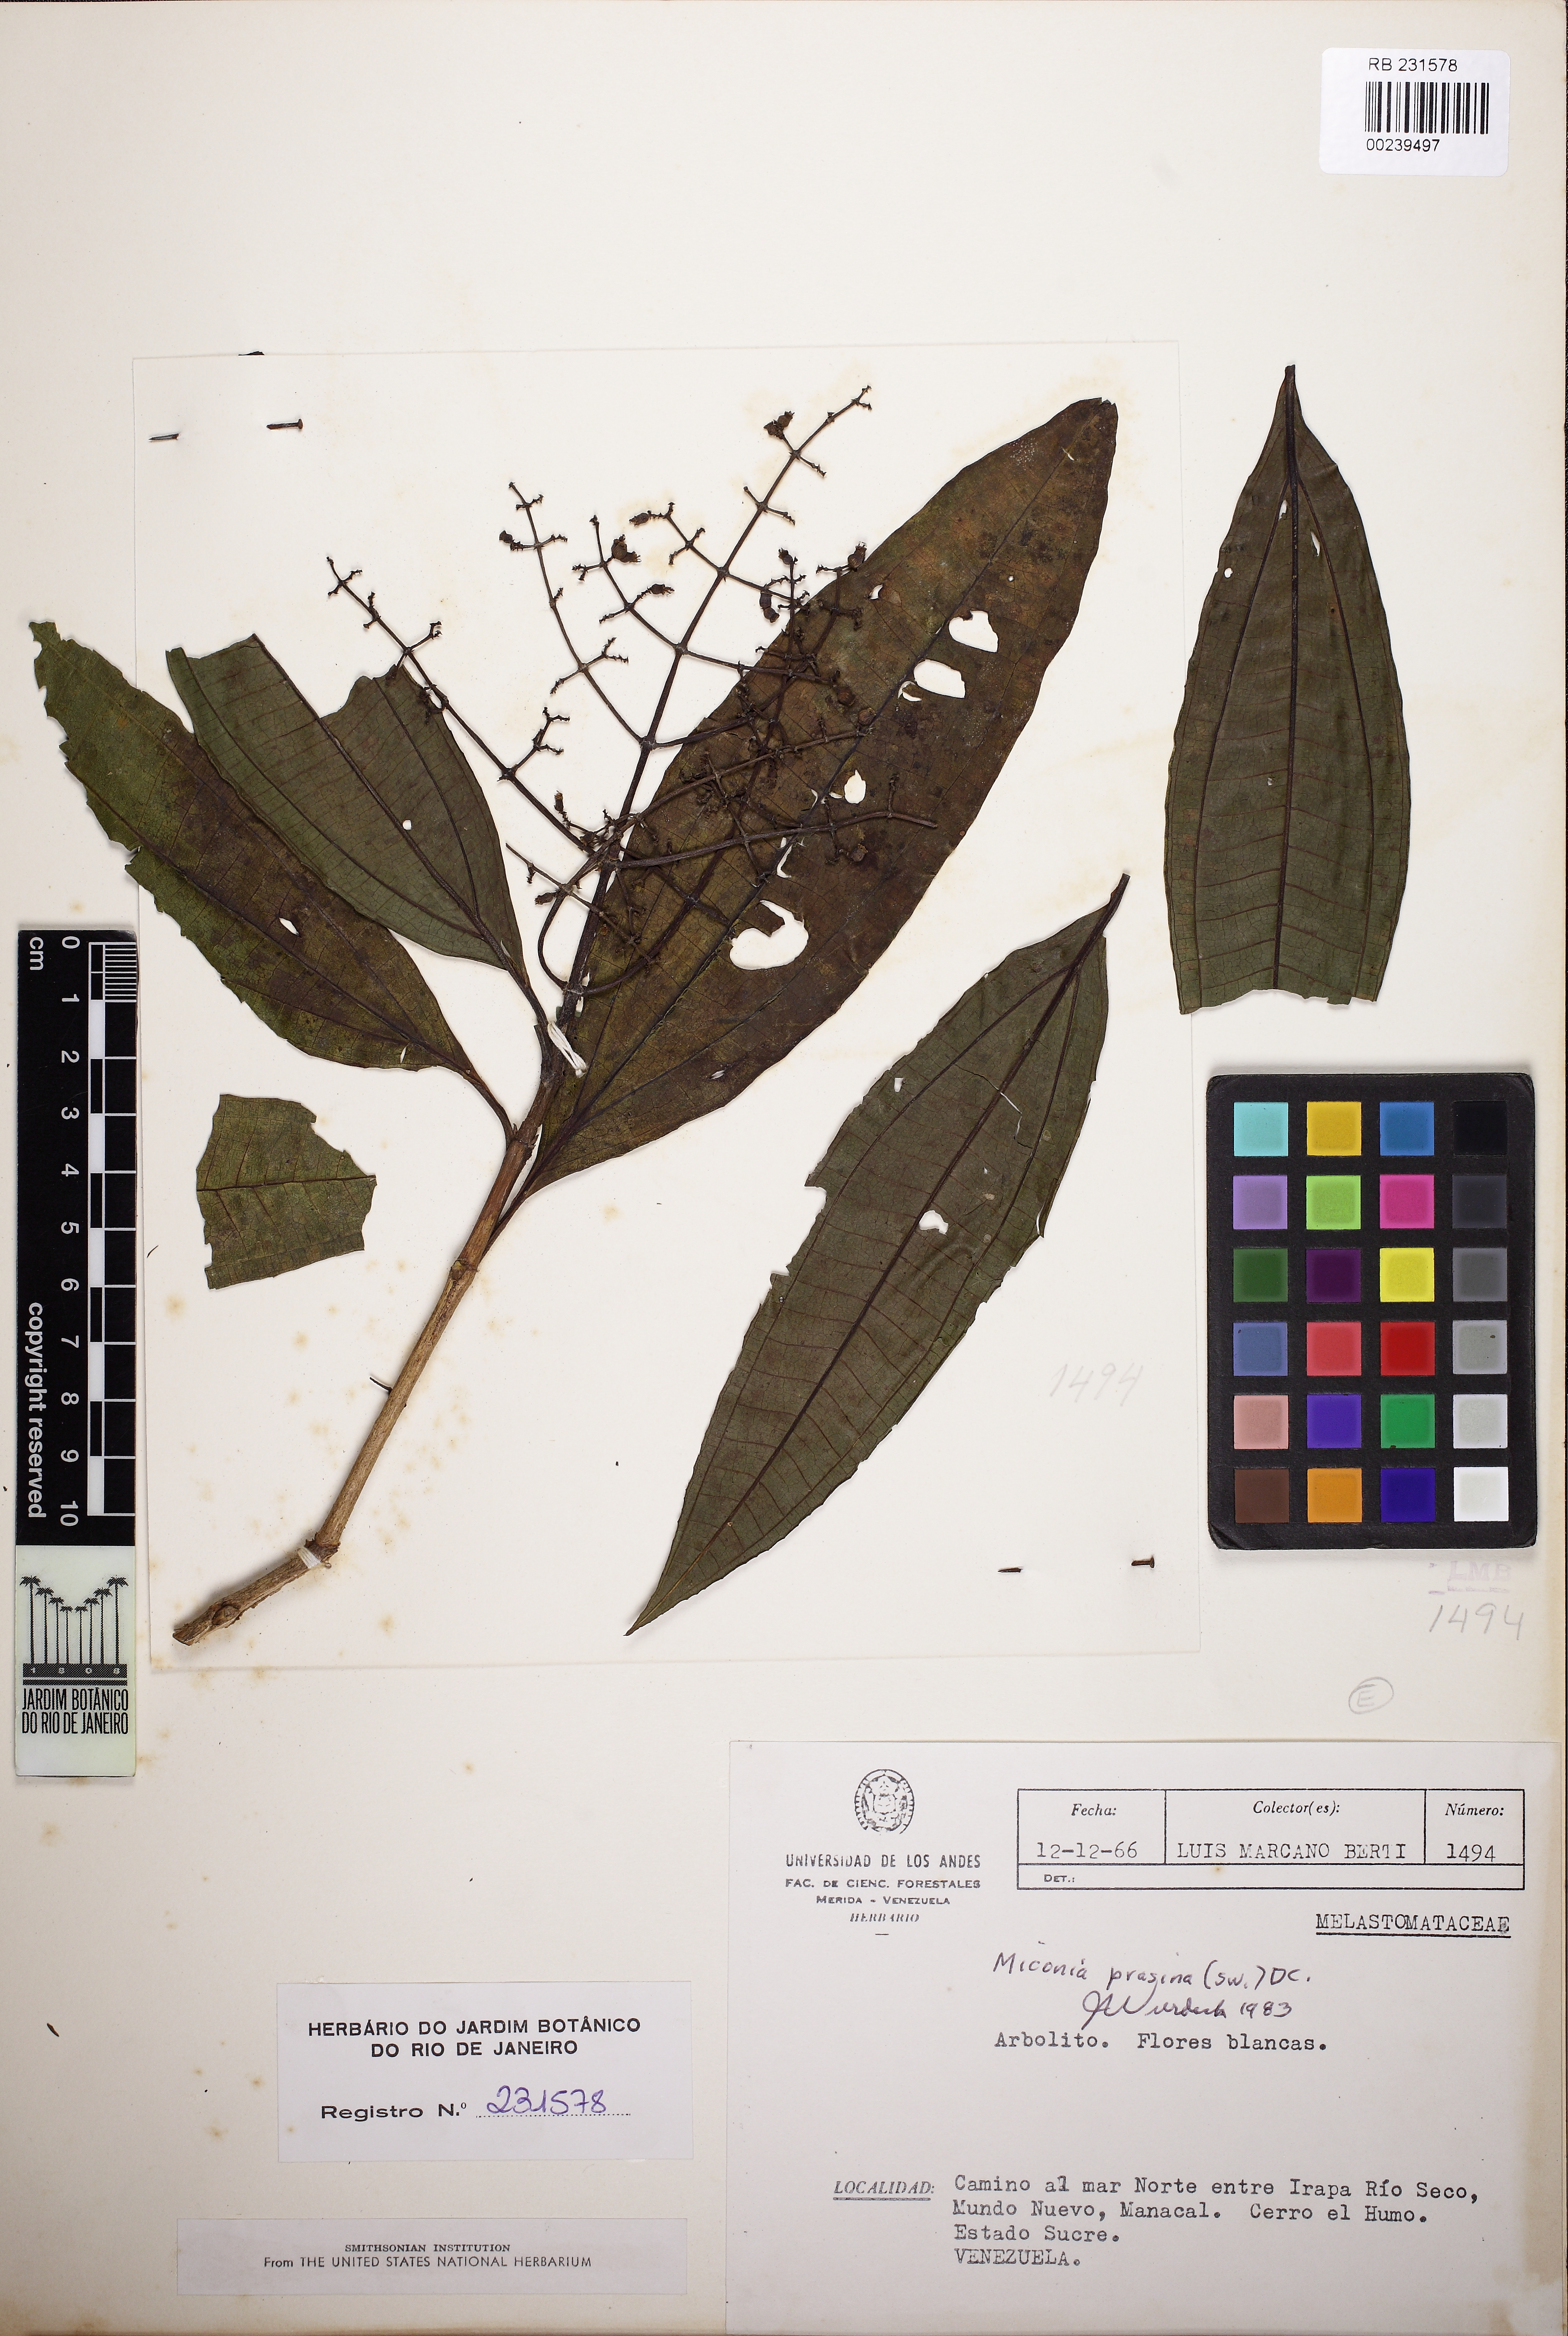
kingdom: Plantae
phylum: Tracheophyta
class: Magnoliopsida
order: Myrtales
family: Melastomataceae
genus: Miconia
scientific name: Miconia prasina
